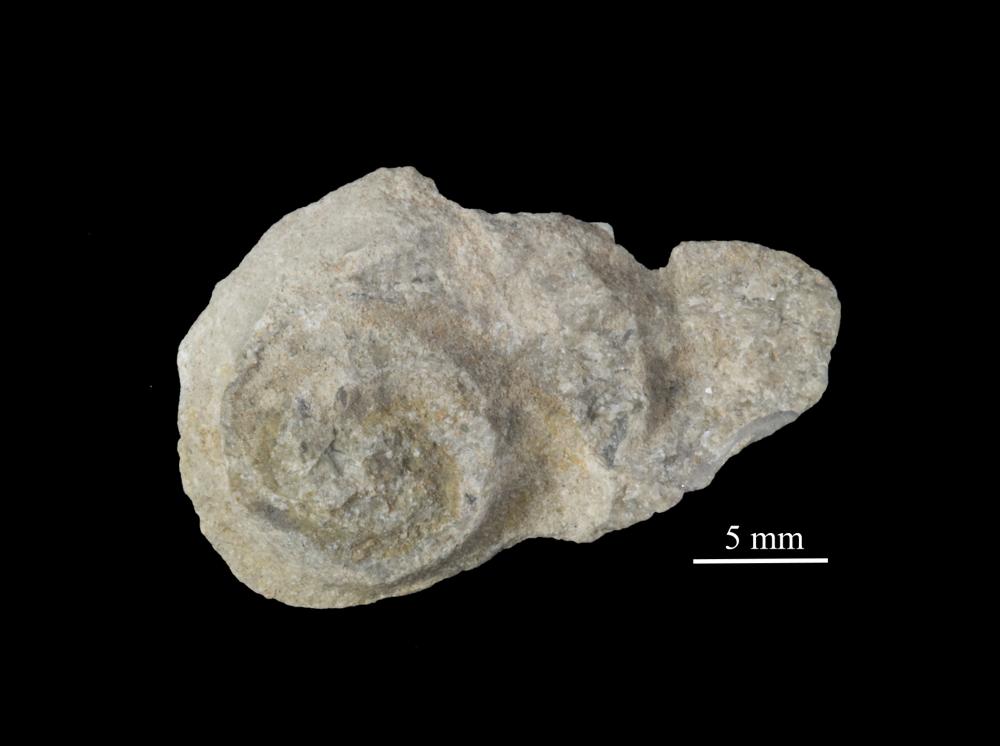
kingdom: Animalia
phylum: Mollusca
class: Gastropoda
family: Lesueurillidae
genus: Mestoronema
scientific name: Mestoronema Euomphalus marginalis
